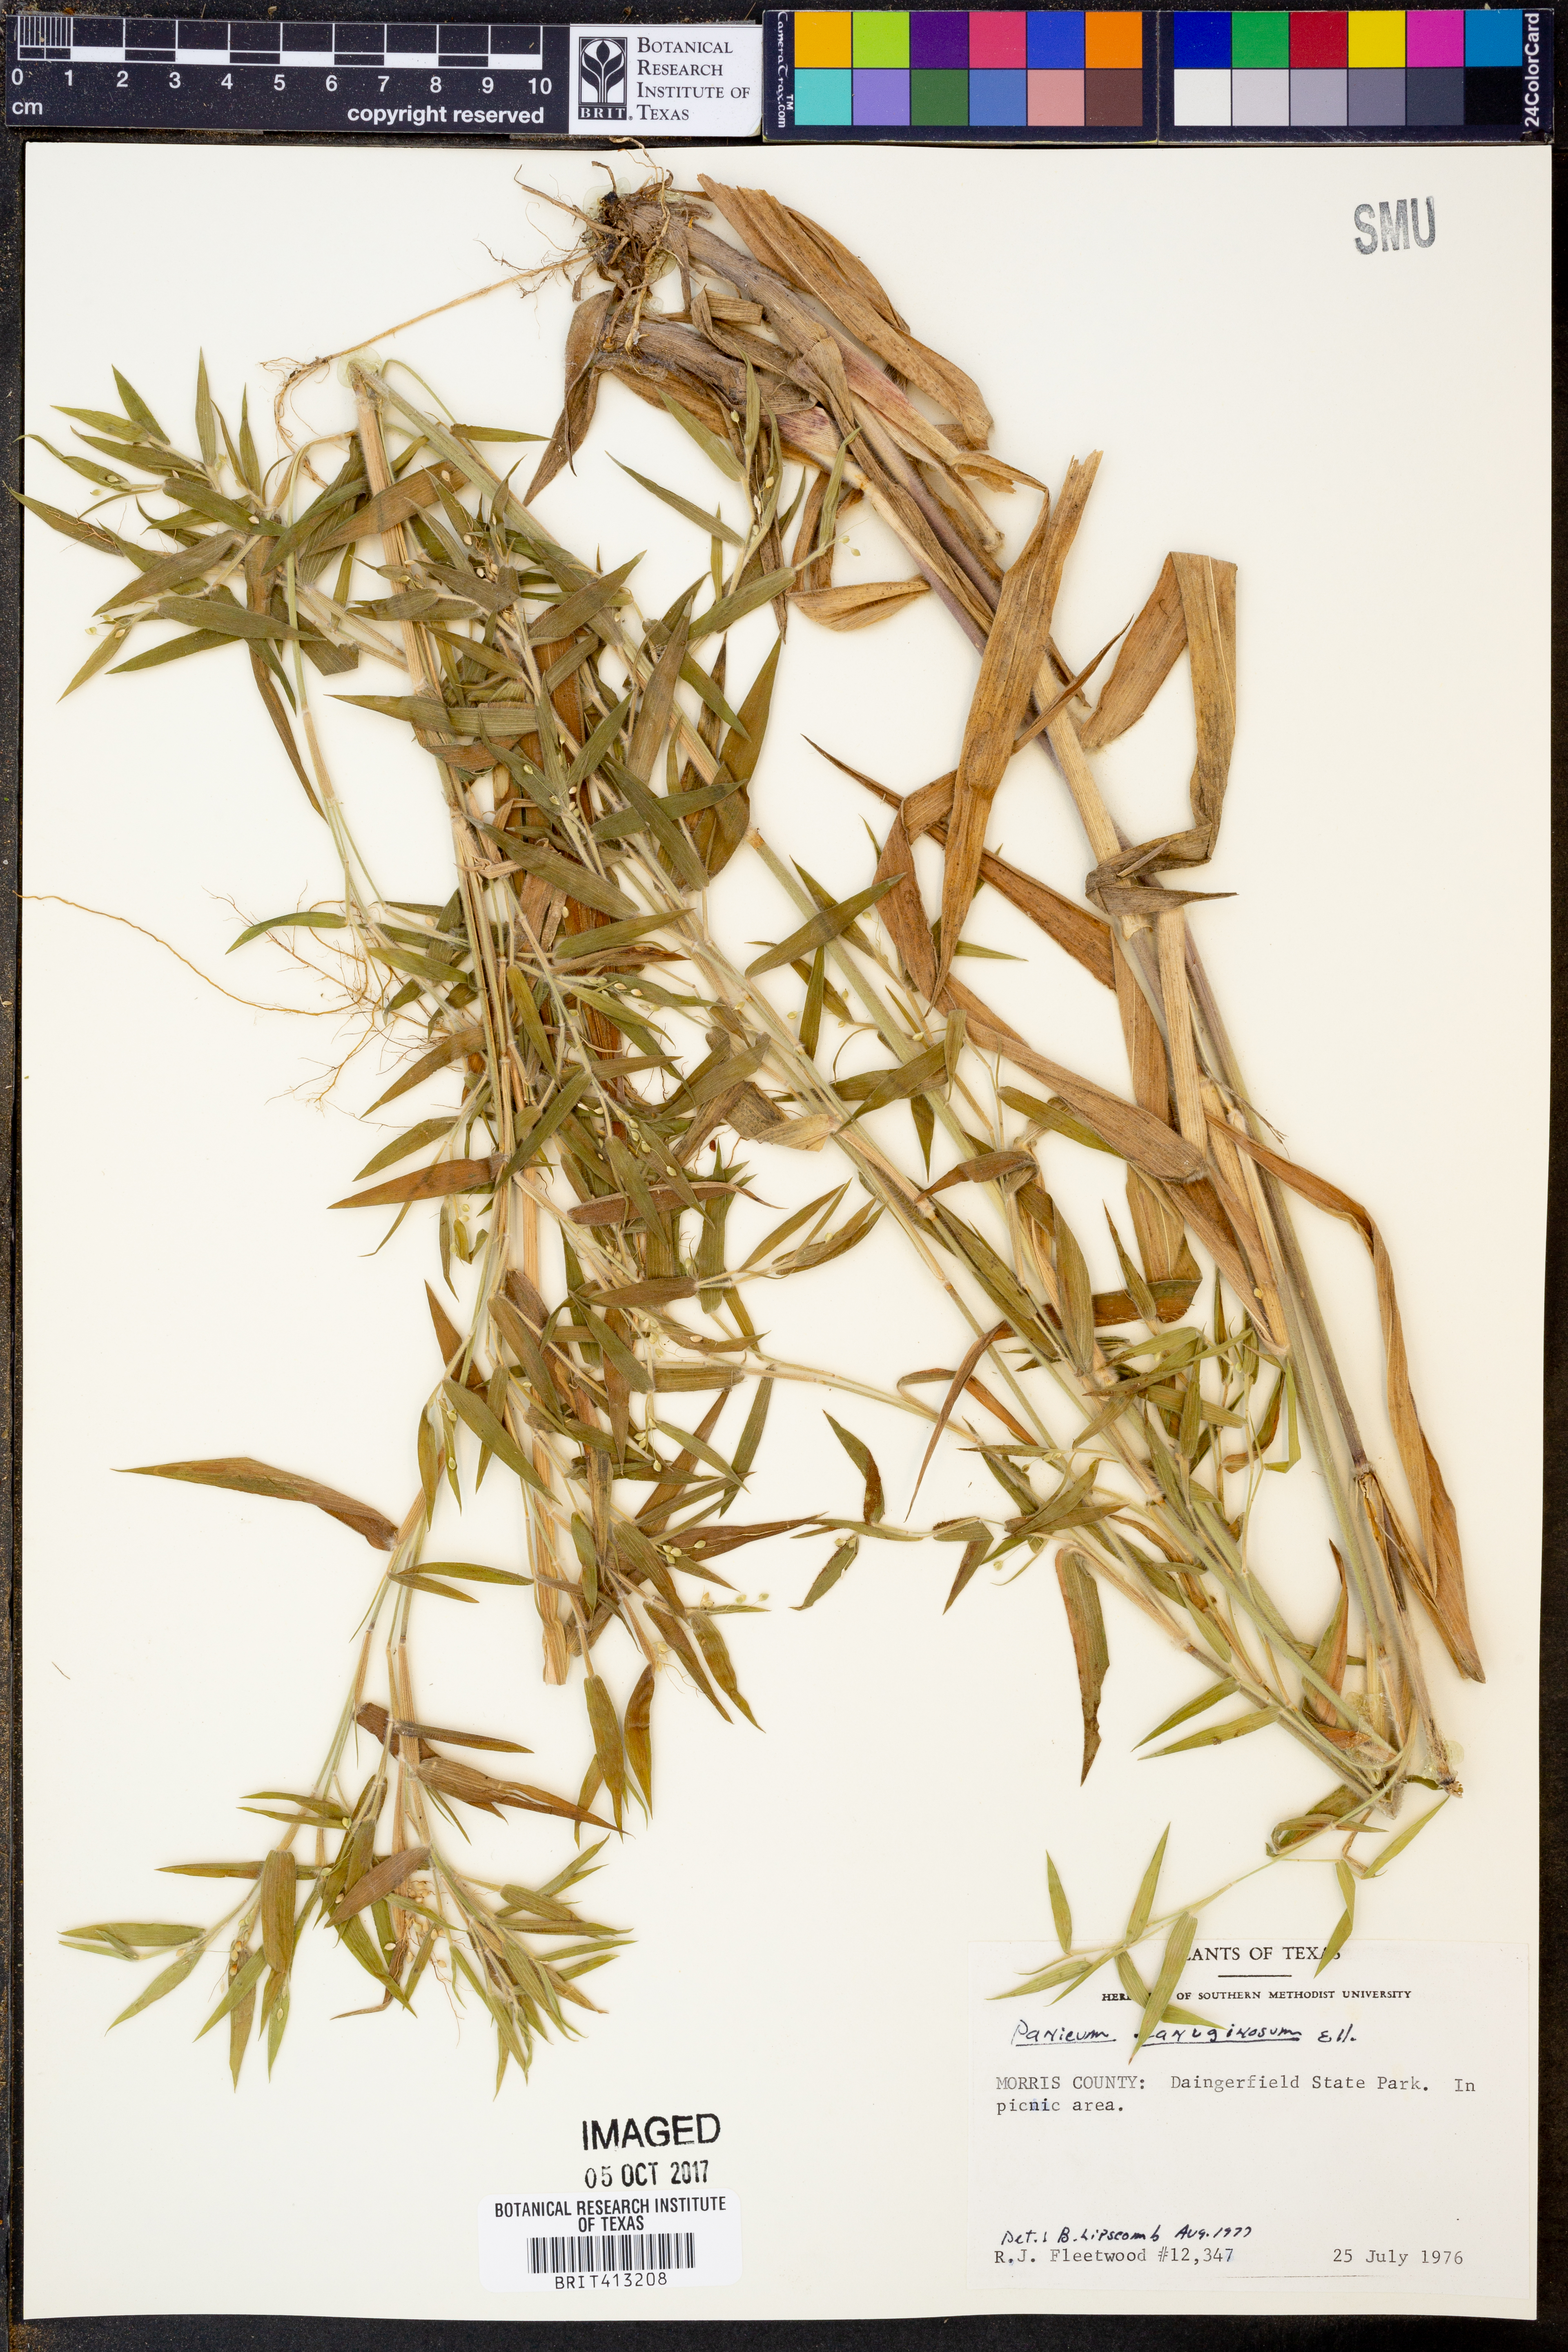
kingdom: Plantae
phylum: Tracheophyta
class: Liliopsida
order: Poales
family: Poaceae
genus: Dichanthelium
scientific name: Dichanthelium lanuginosum
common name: Woolly panicgrass
